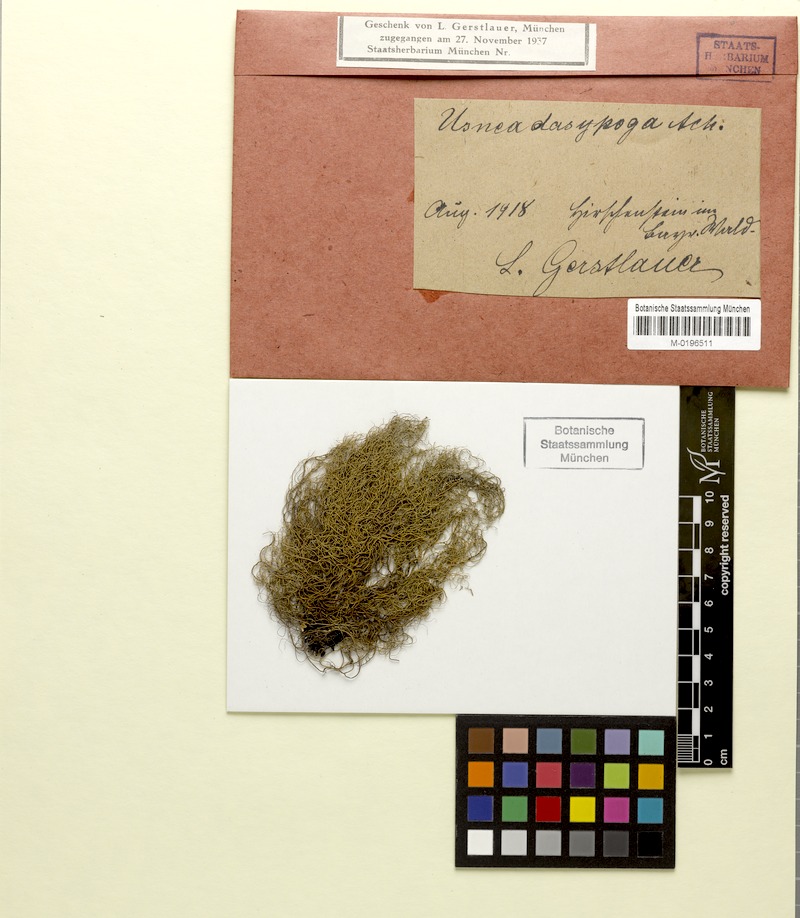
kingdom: Fungi
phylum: Ascomycota
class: Lecanoromycetes
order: Lecanorales
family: Parmeliaceae
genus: Usnea
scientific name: Usnea dasopoga
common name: Fishbone beard lichen
